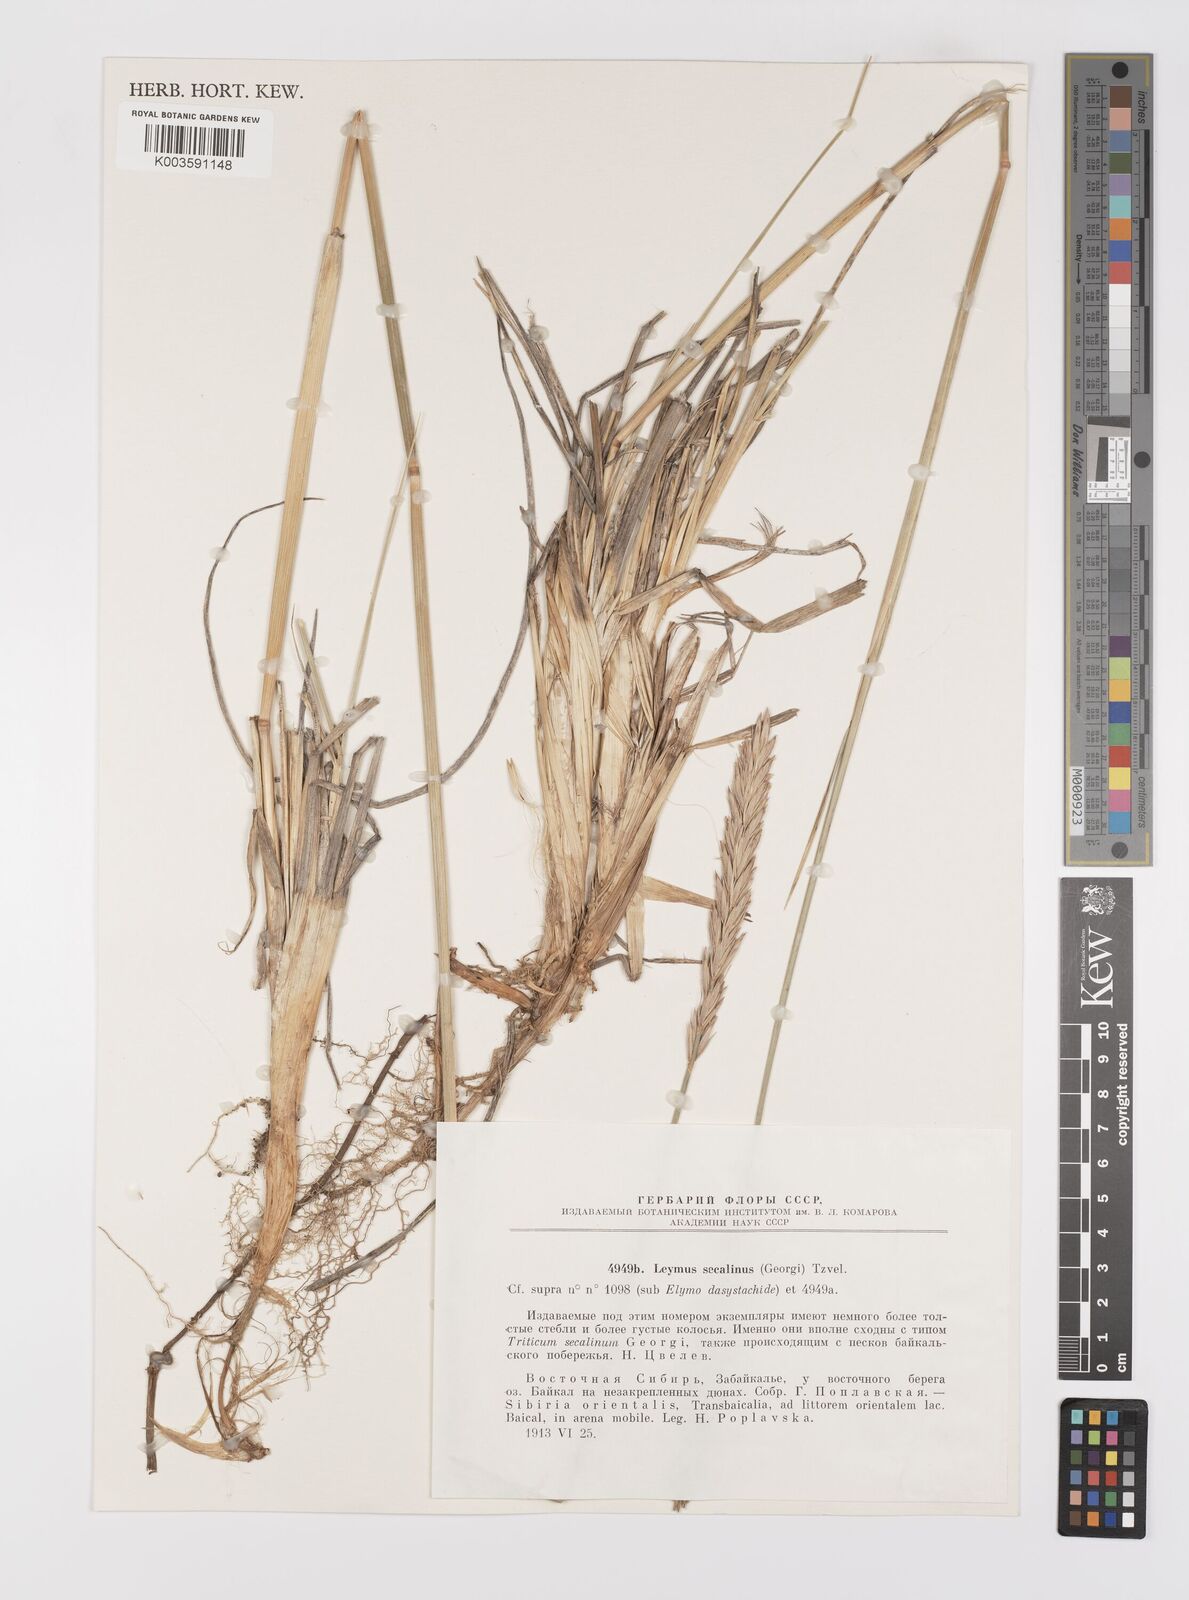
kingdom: Plantae
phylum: Tracheophyta
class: Liliopsida
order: Poales
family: Poaceae
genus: Leymus
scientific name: Leymus secalinus
